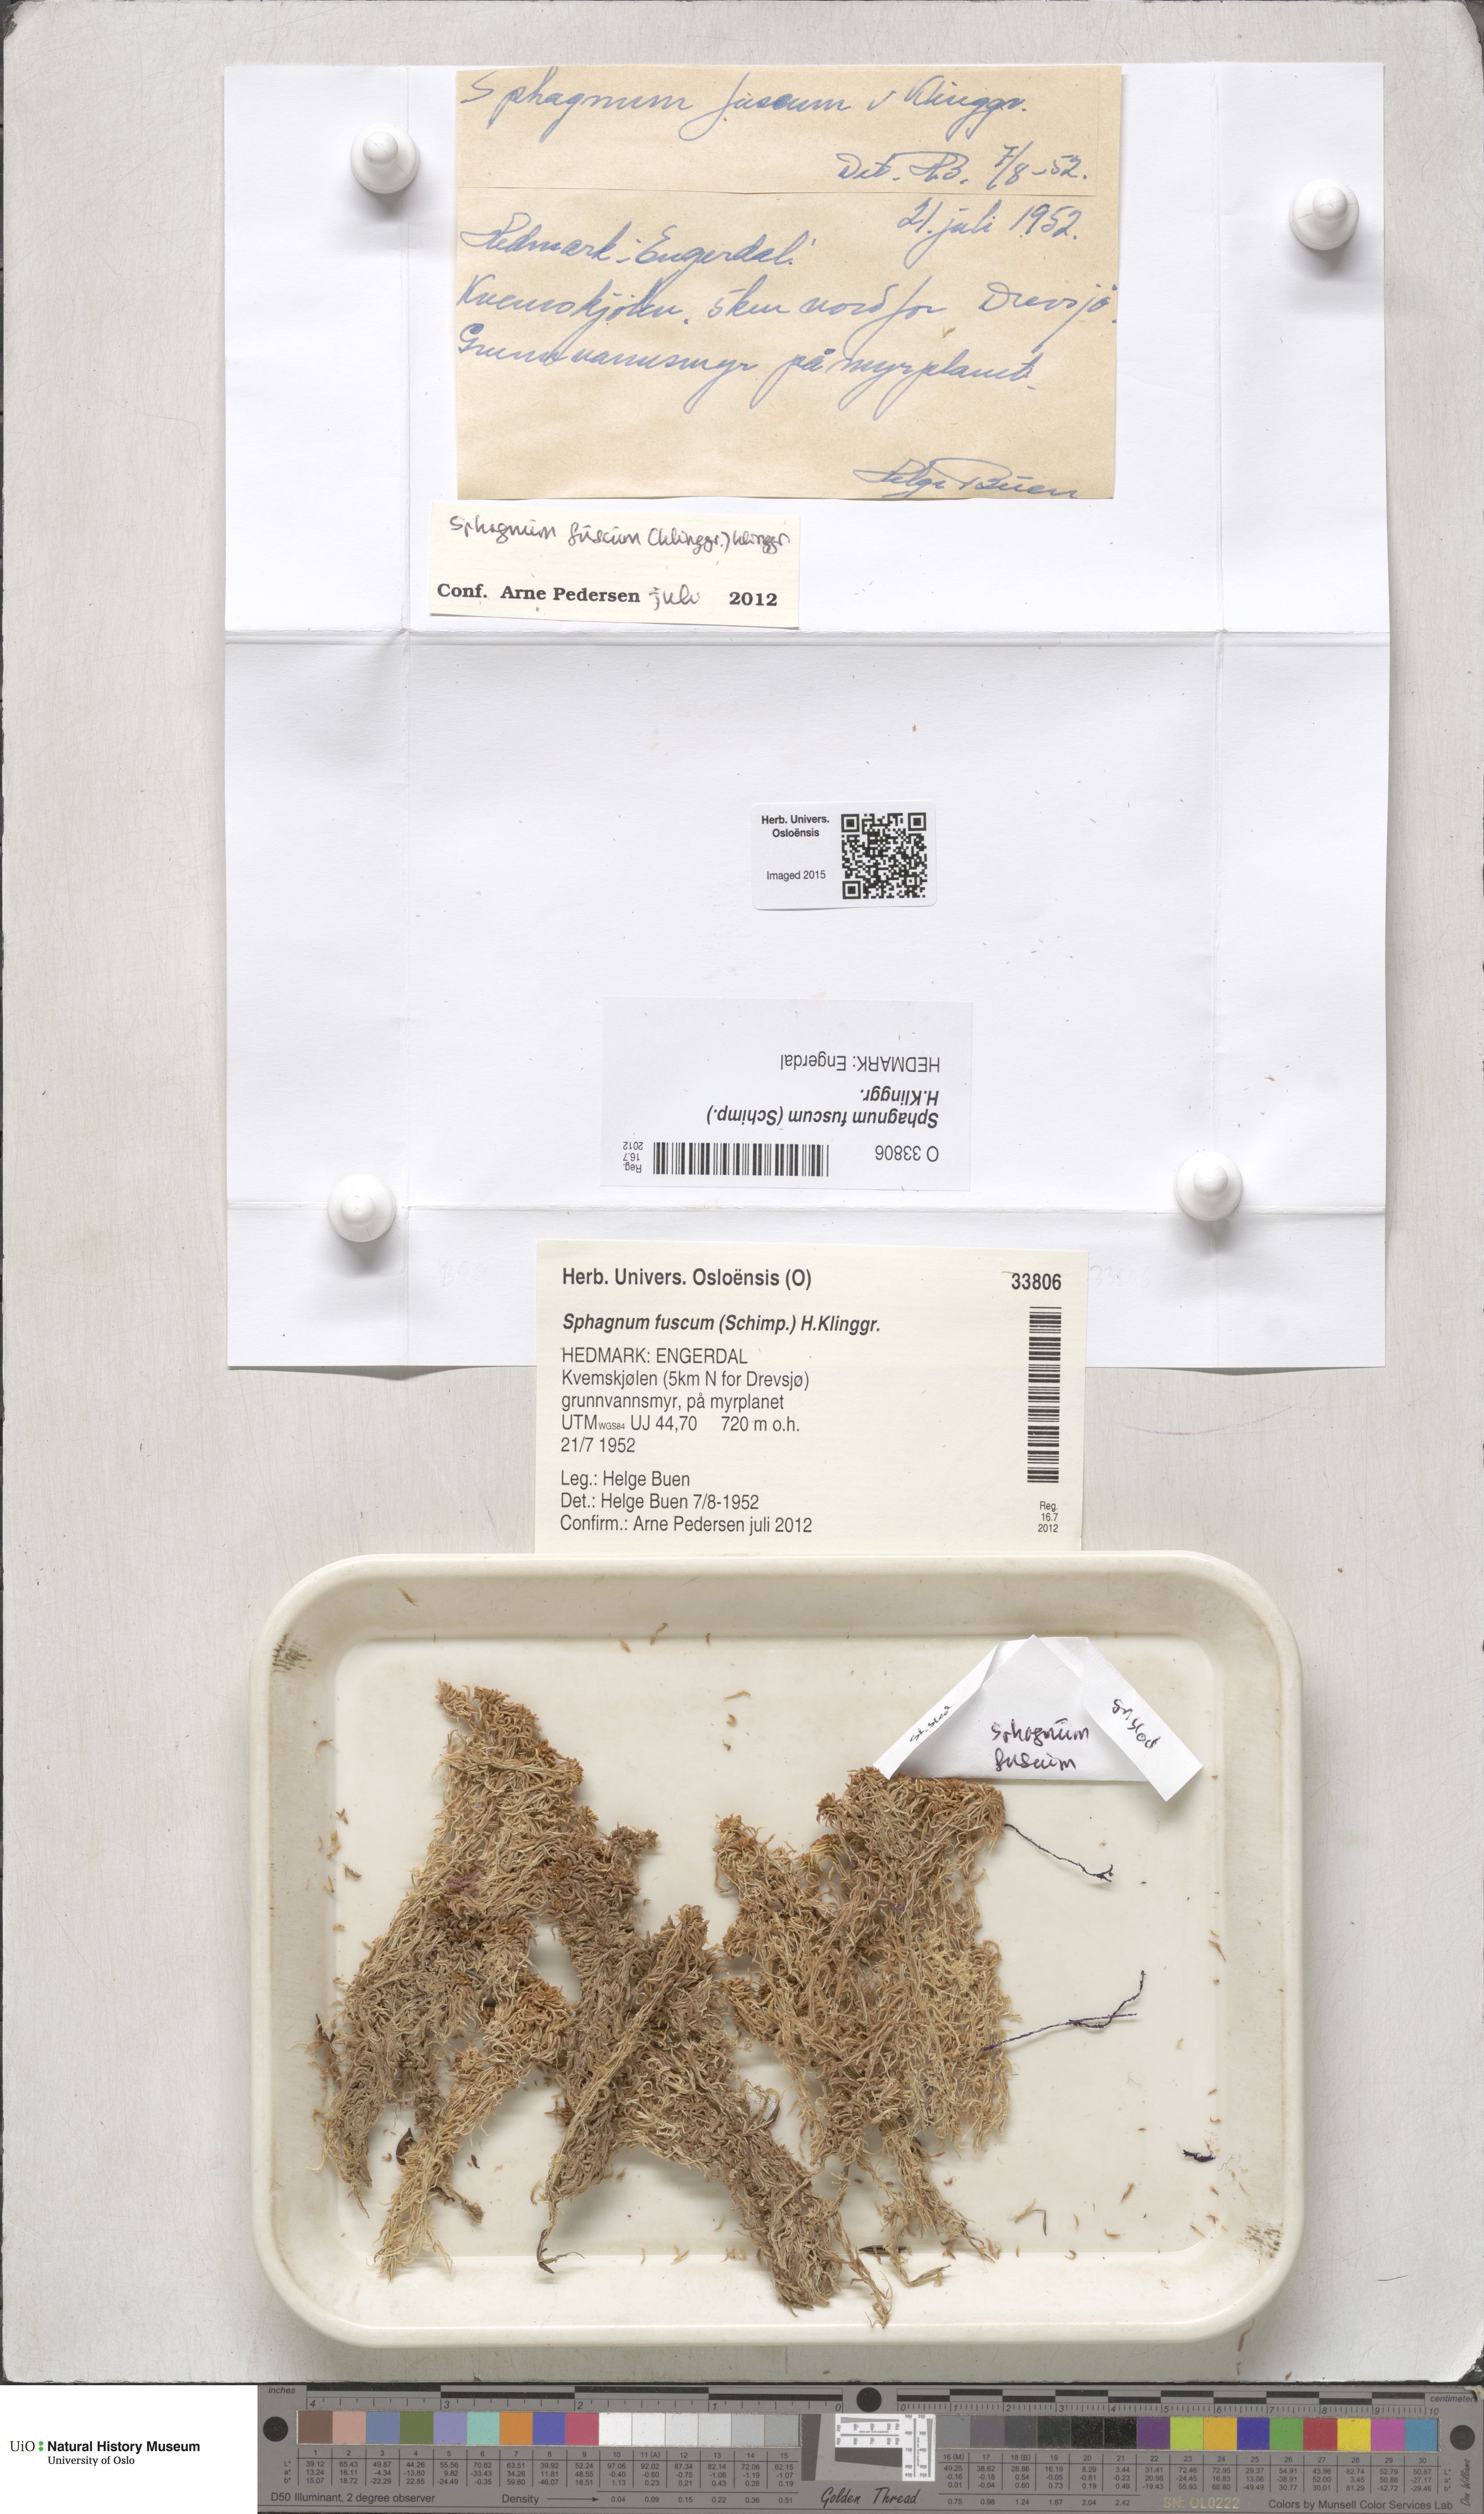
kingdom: Plantae
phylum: Bryophyta
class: Sphagnopsida
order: Sphagnales
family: Sphagnaceae
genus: Sphagnum
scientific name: Sphagnum fuscum
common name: Brown peat moss
